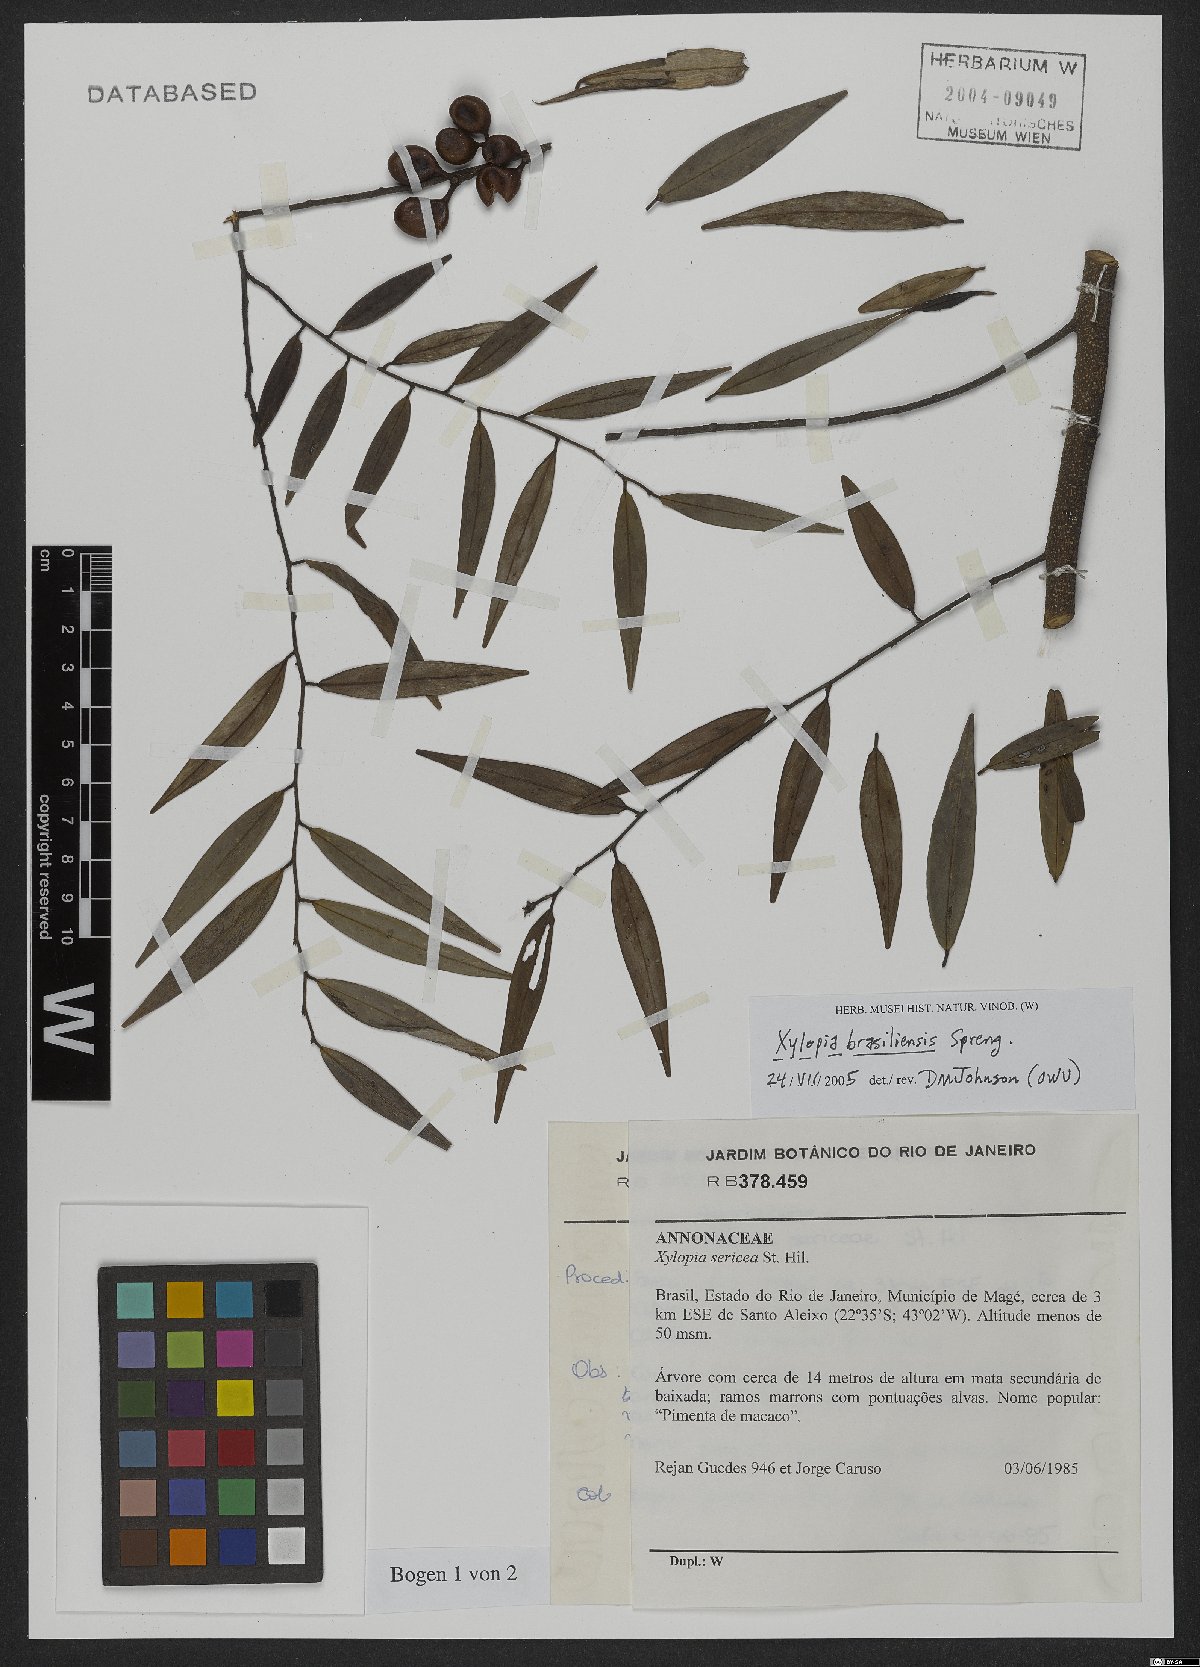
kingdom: Plantae
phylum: Tracheophyta
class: Magnoliopsida
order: Magnoliales
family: Annonaceae
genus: Xylopia
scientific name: Xylopia brasiliensis
